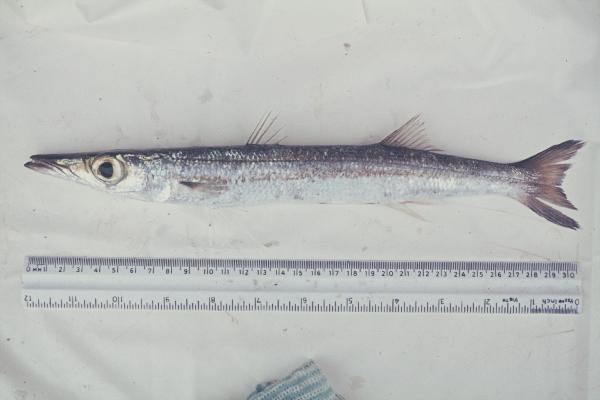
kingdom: Animalia
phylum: Chordata
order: Perciformes
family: Sphyraenidae
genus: Sphyraena
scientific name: Sphyraena flavicauda
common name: Yellowtail barracuda
